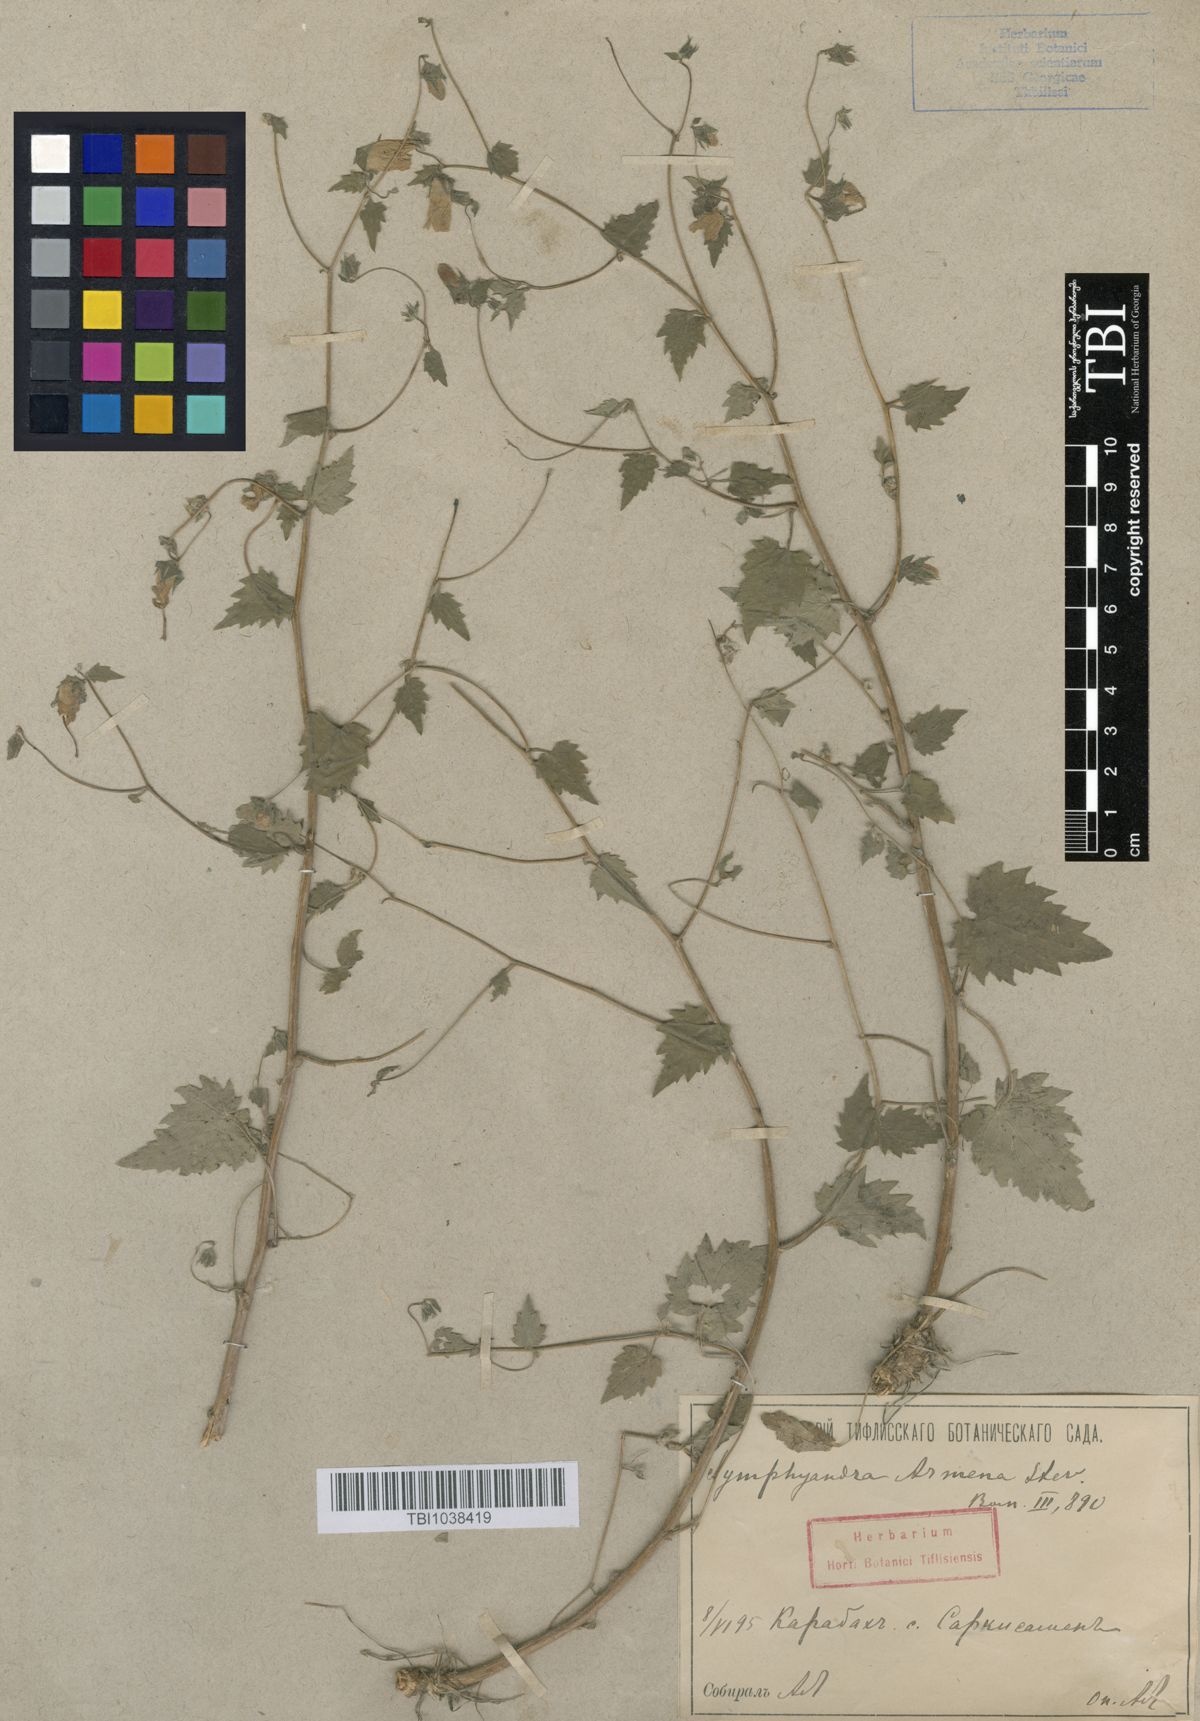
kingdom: Plantae
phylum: Tracheophyta
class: Magnoliopsida
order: Asterales
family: Campanulaceae
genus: Campanula
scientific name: Campanula armena
